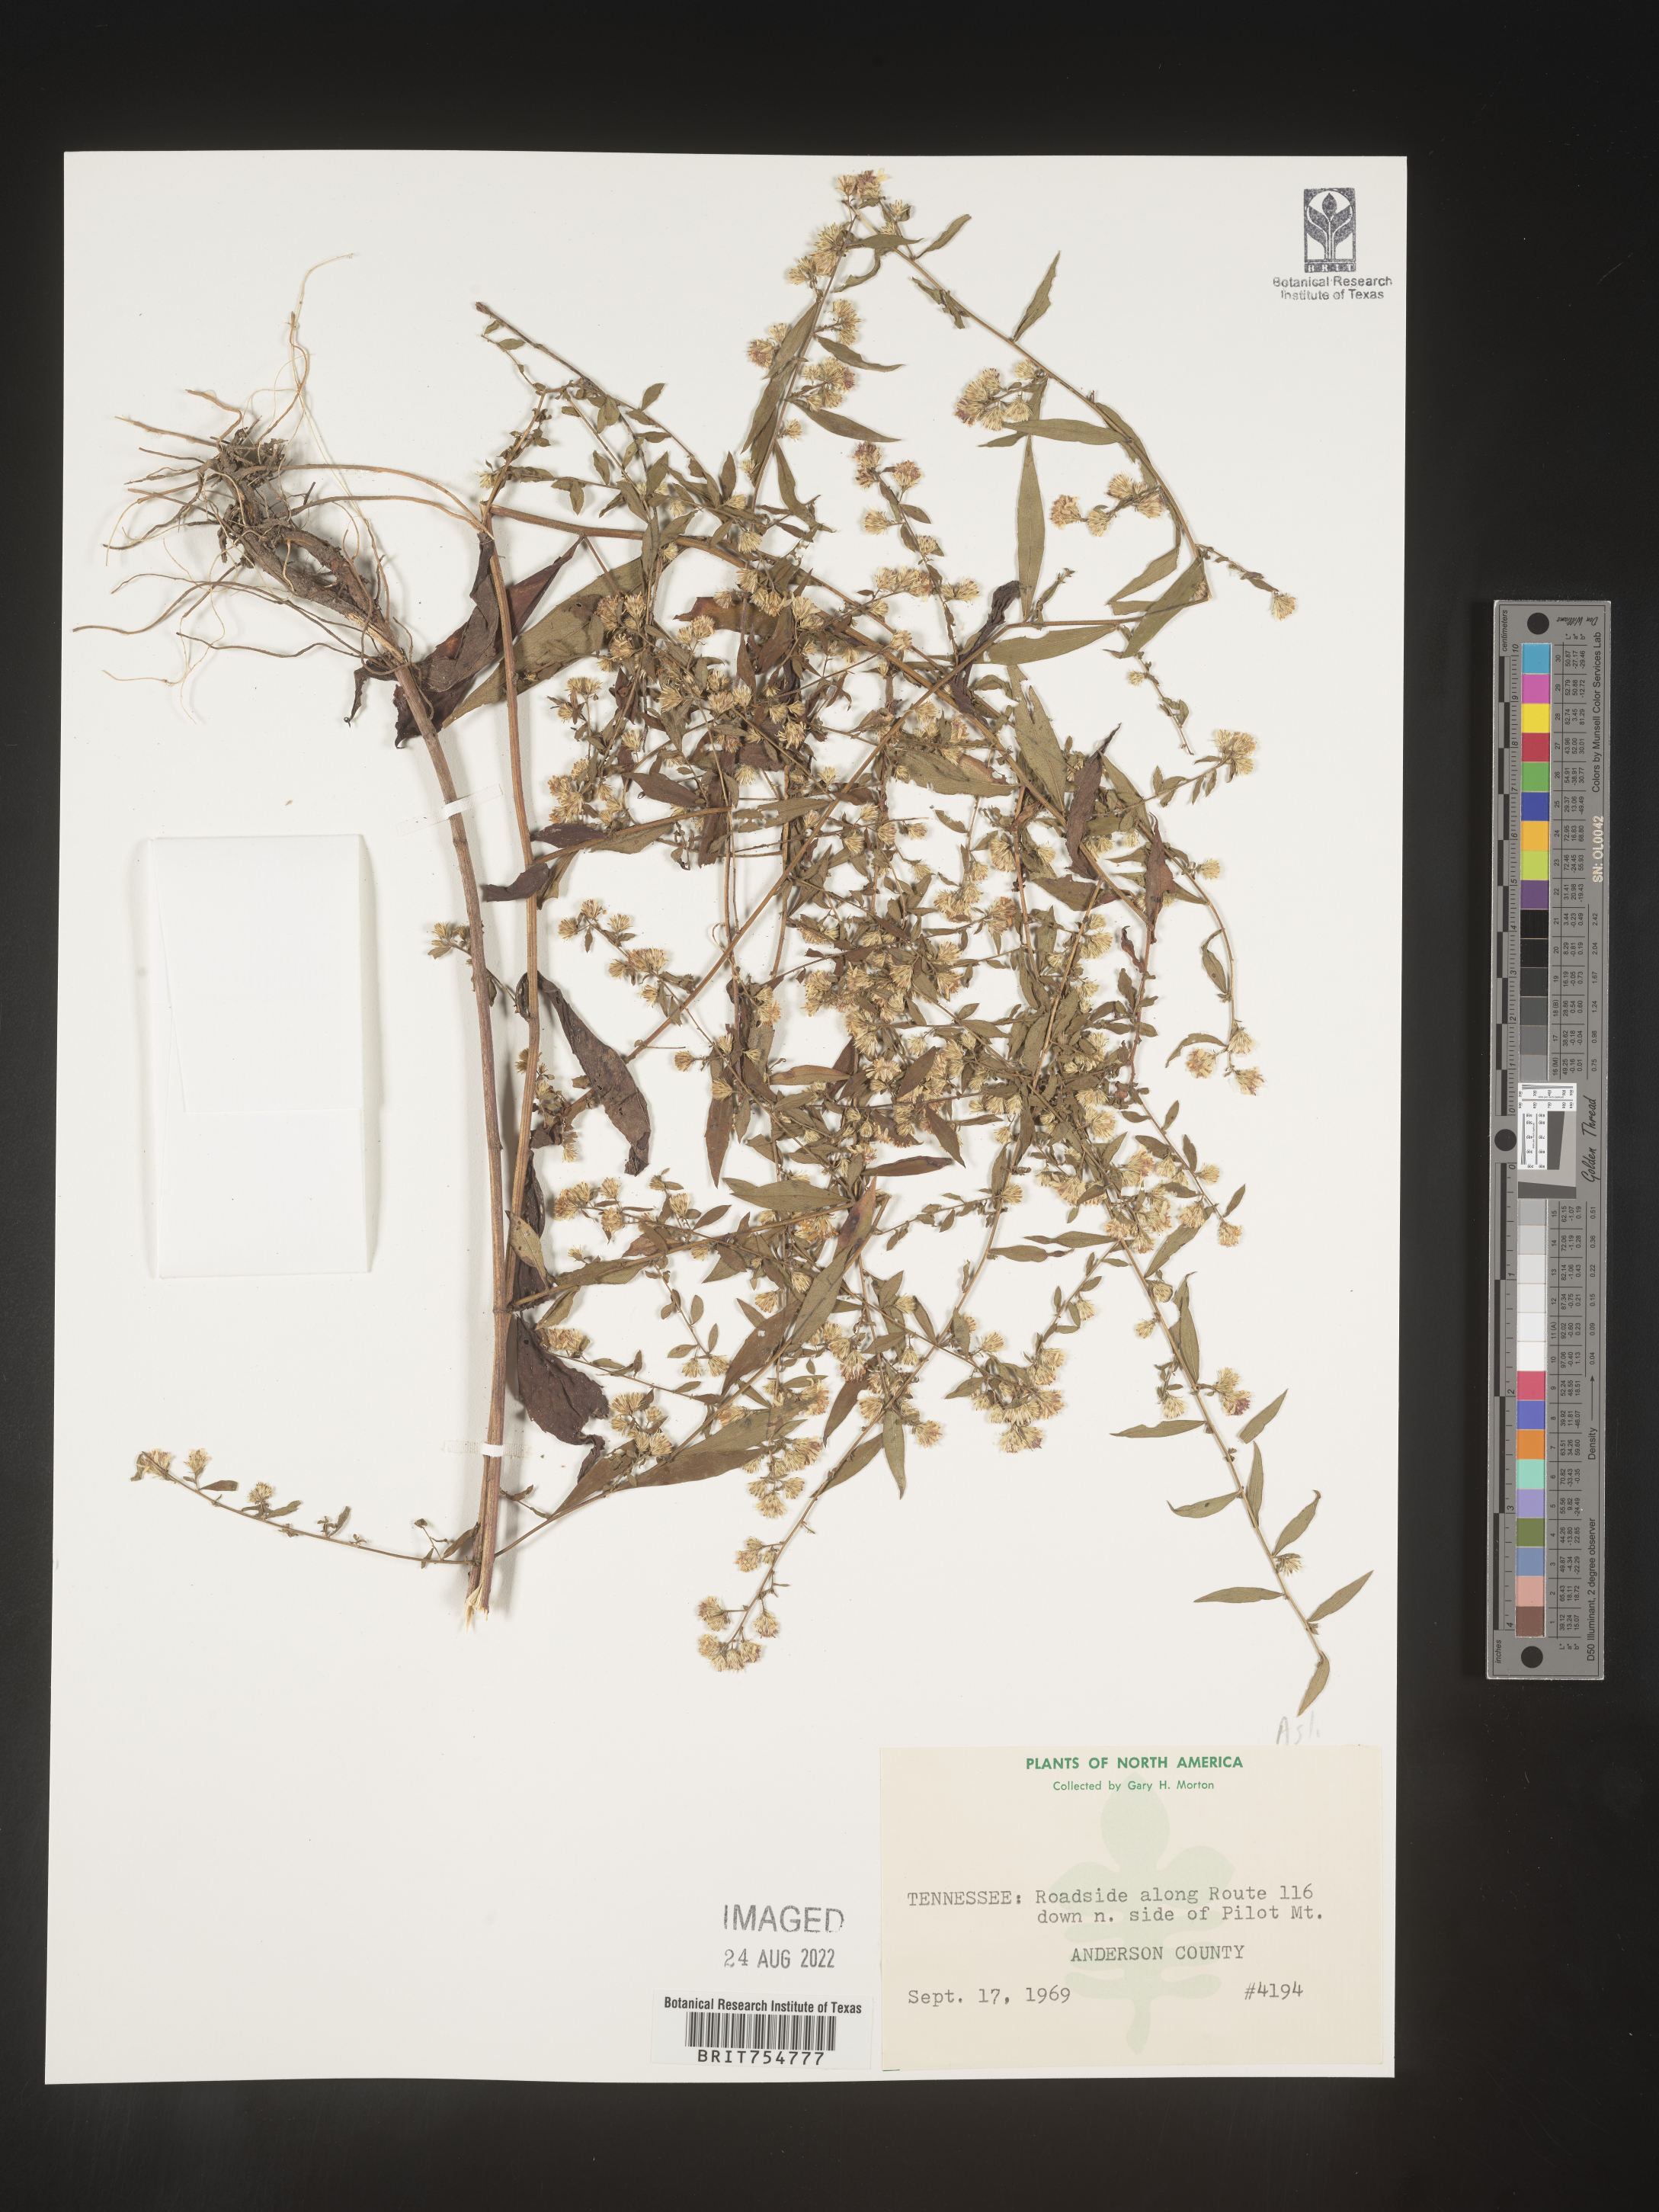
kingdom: Plantae
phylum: Tracheophyta
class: Magnoliopsida
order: Asterales
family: Asteraceae
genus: Symphyotrichum
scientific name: Symphyotrichum
